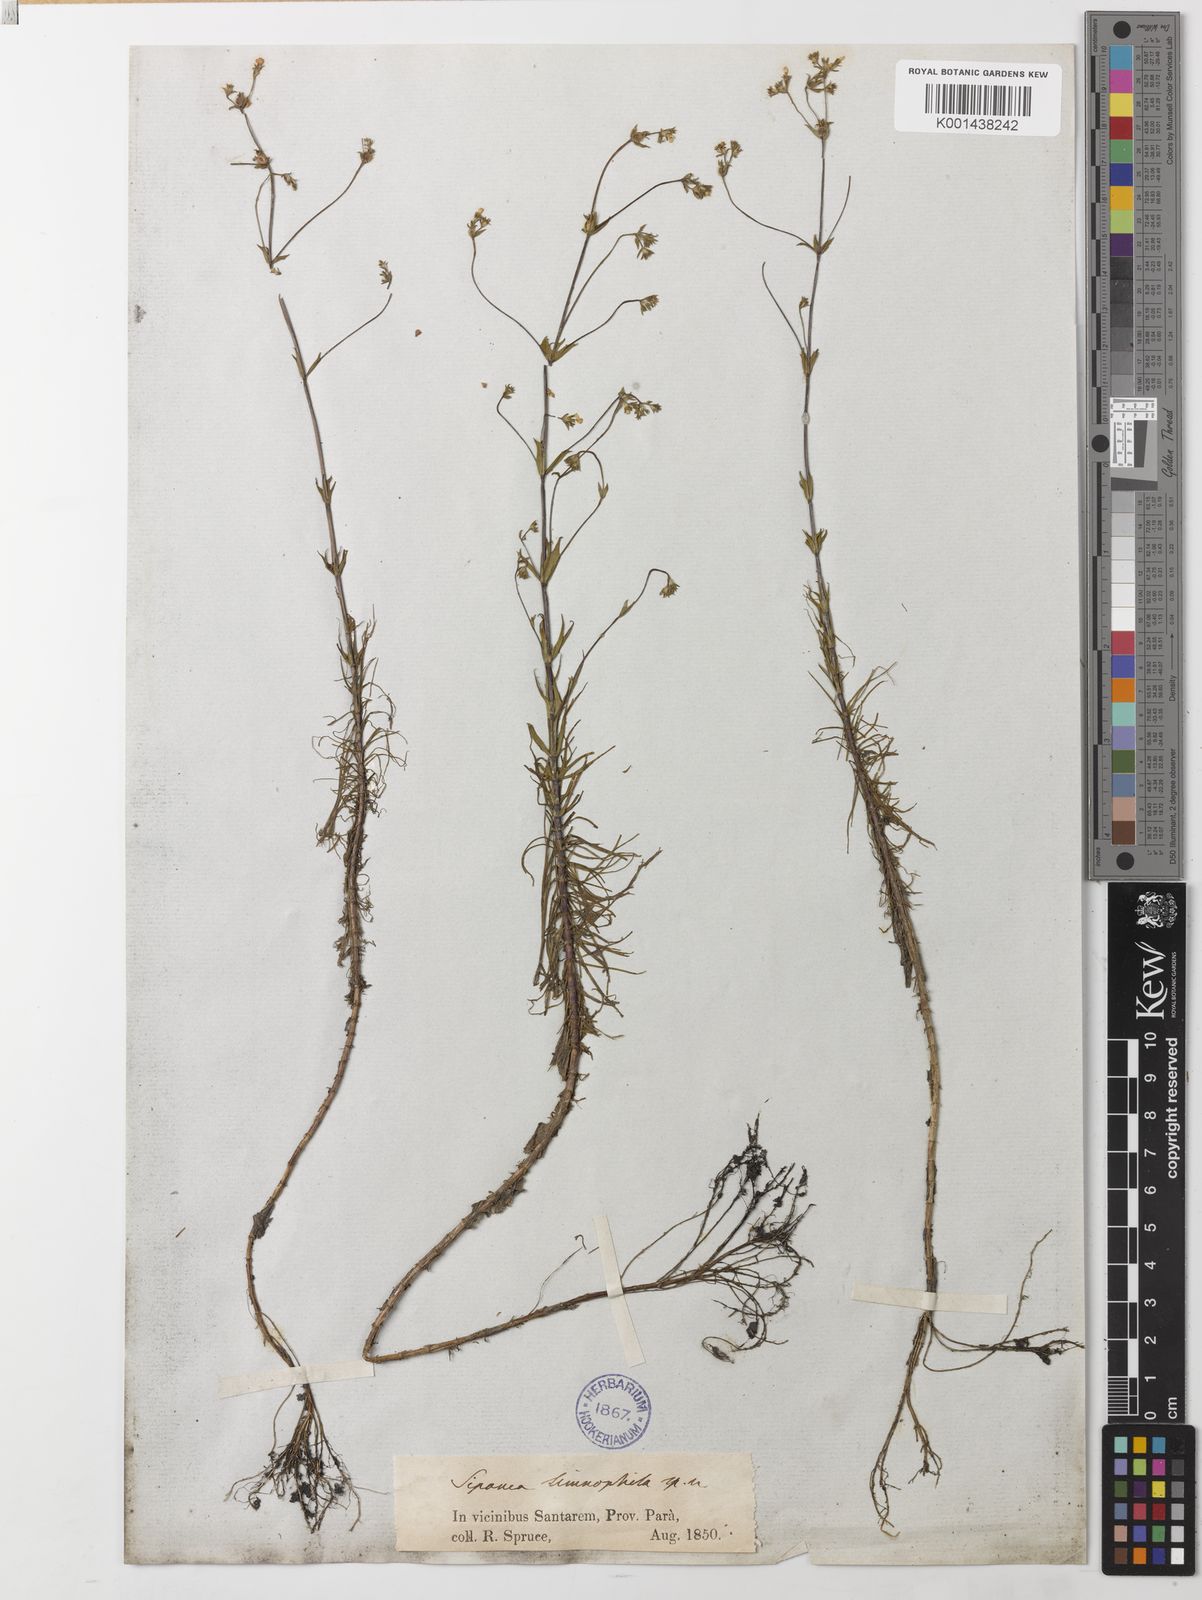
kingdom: Plantae
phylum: Tracheophyta
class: Magnoliopsida
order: Gentianales
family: Rubiaceae
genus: Limnosipanea
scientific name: Limnosipanea spruceana
